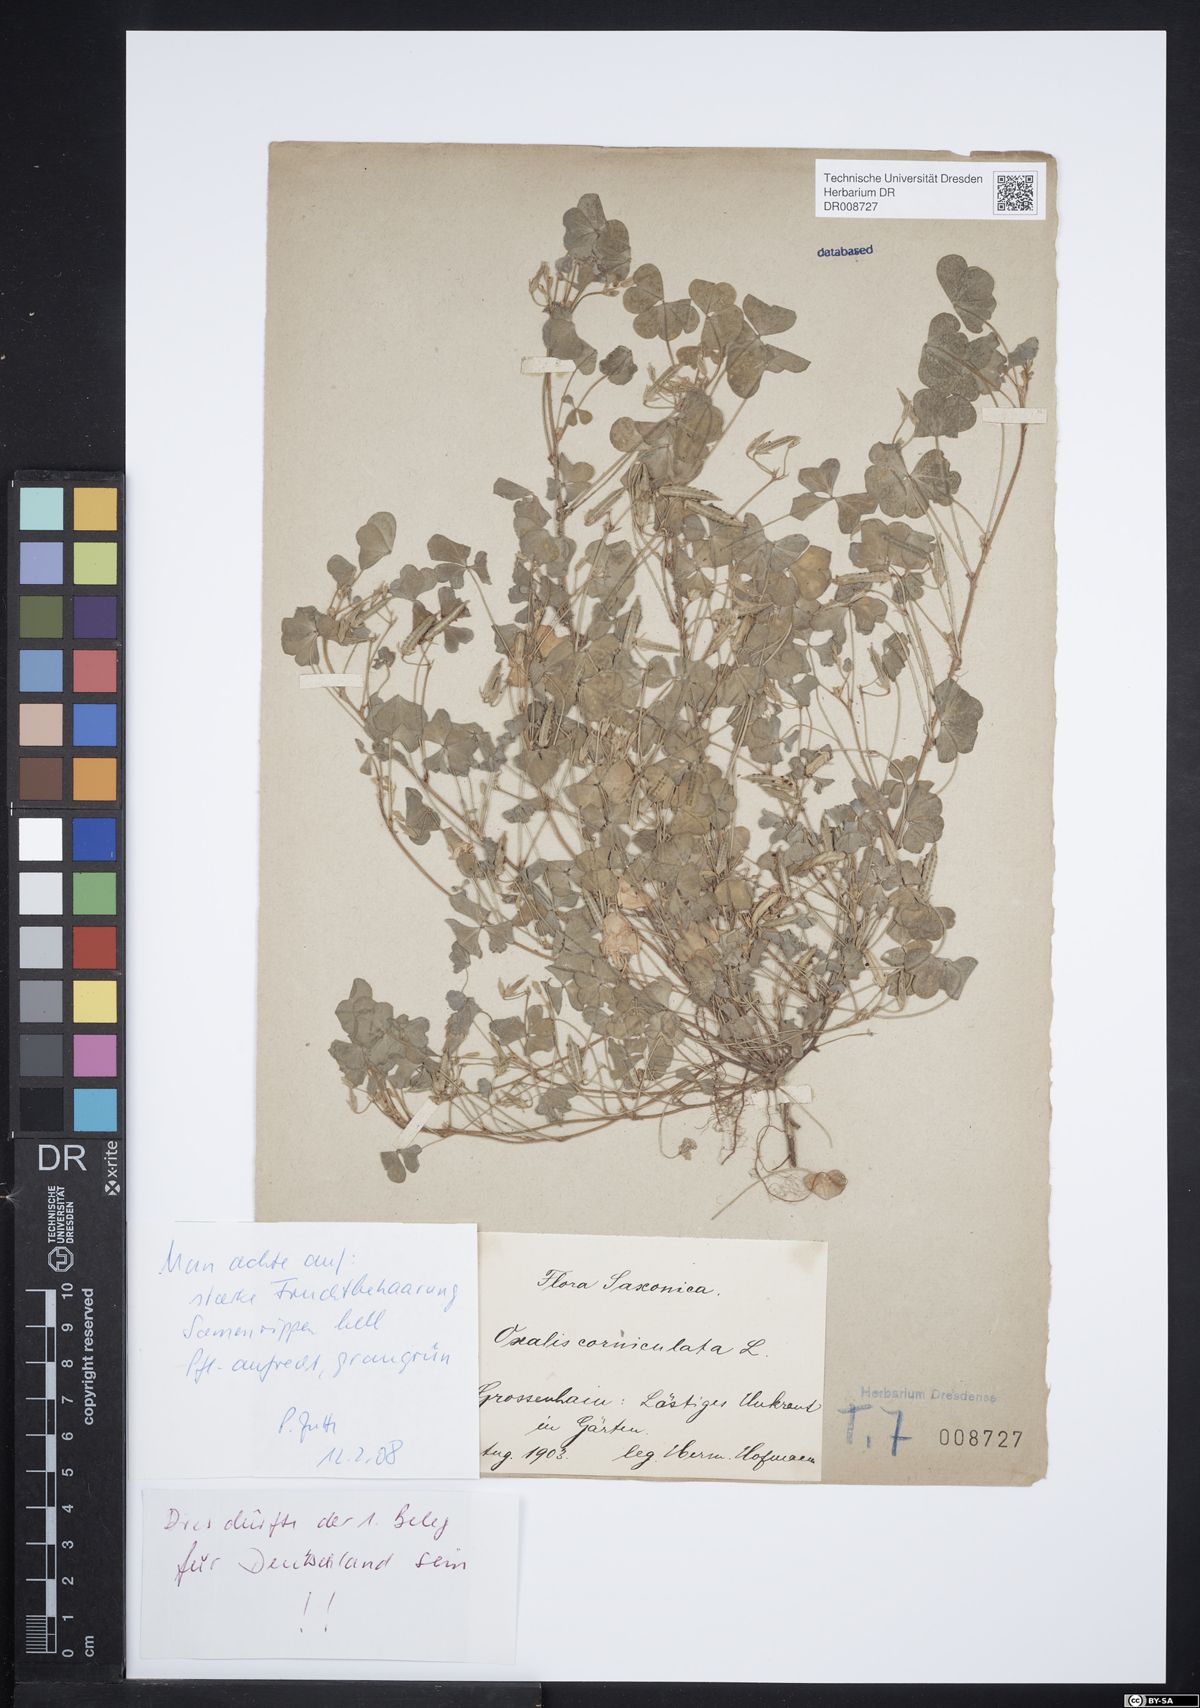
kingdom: Plantae
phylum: Tracheophyta
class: Magnoliopsida
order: Oxalidales
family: Oxalidaceae
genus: Oxalis
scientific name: Oxalis corniculata
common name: Procumbent yellow-sorrel
